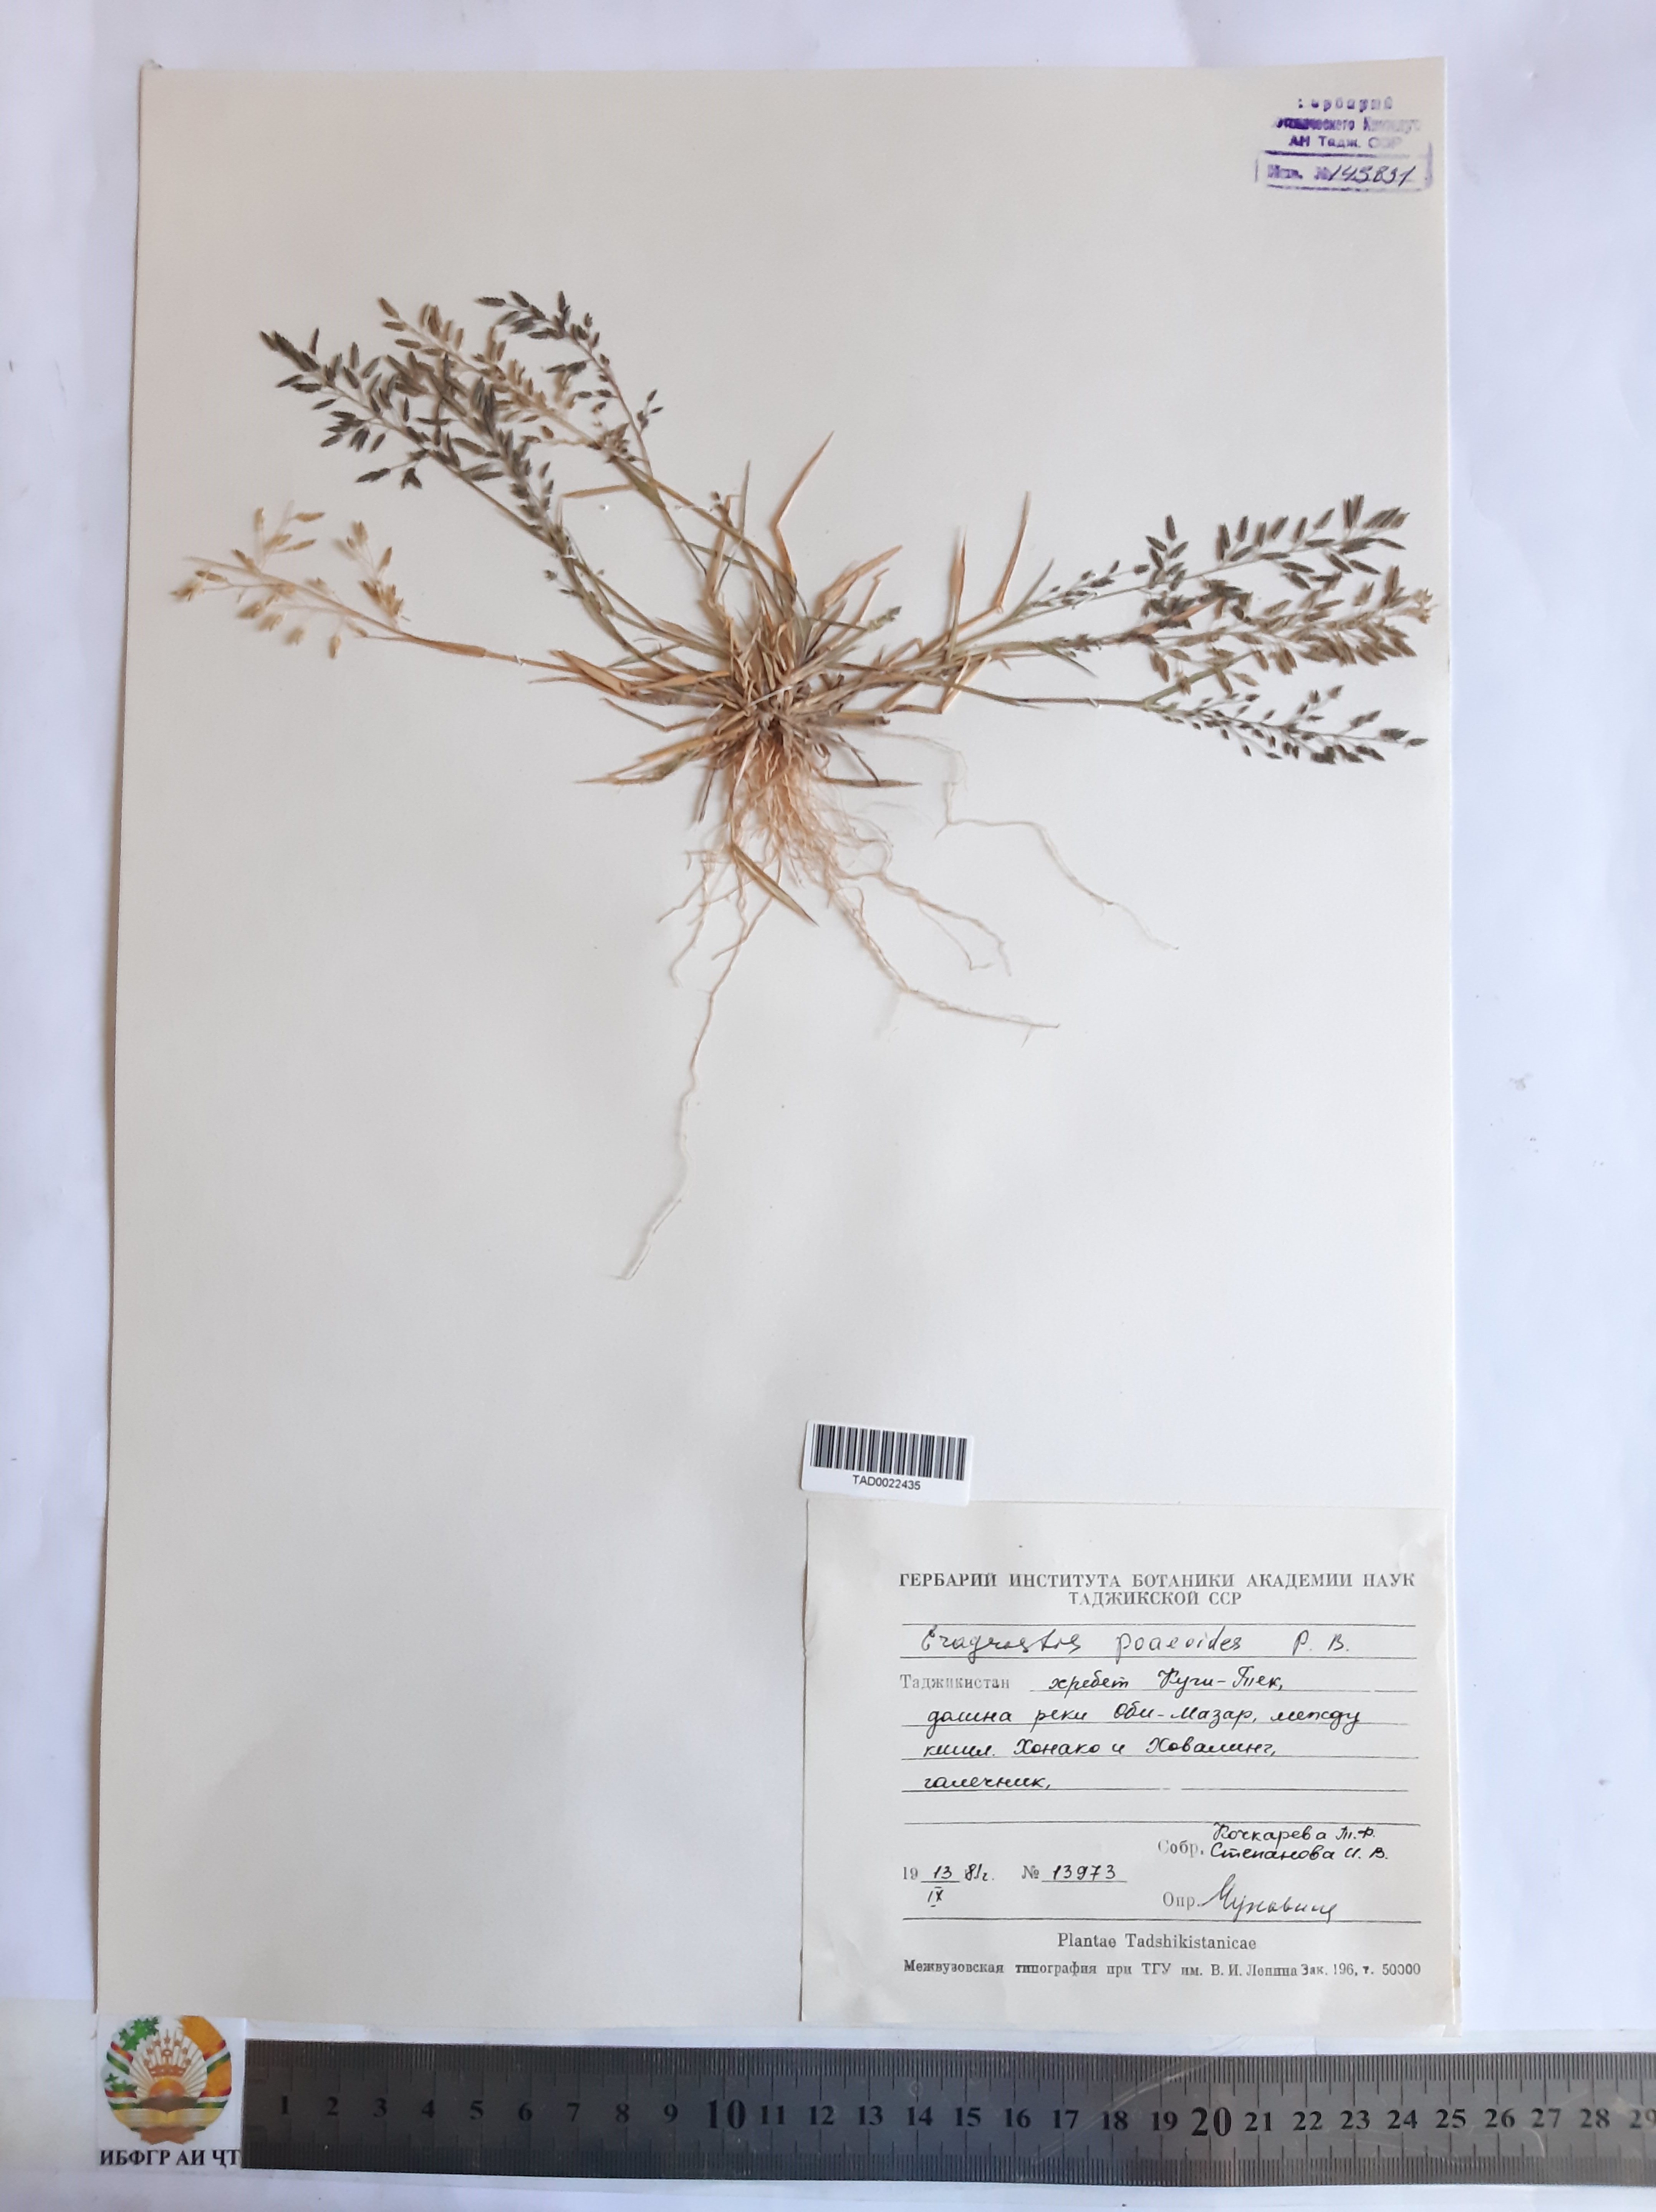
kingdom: Plantae
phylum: Tracheophyta
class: Liliopsida
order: Poales
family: Poaceae
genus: Eragrostis
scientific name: Eragrostis minor
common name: Small love-grass
